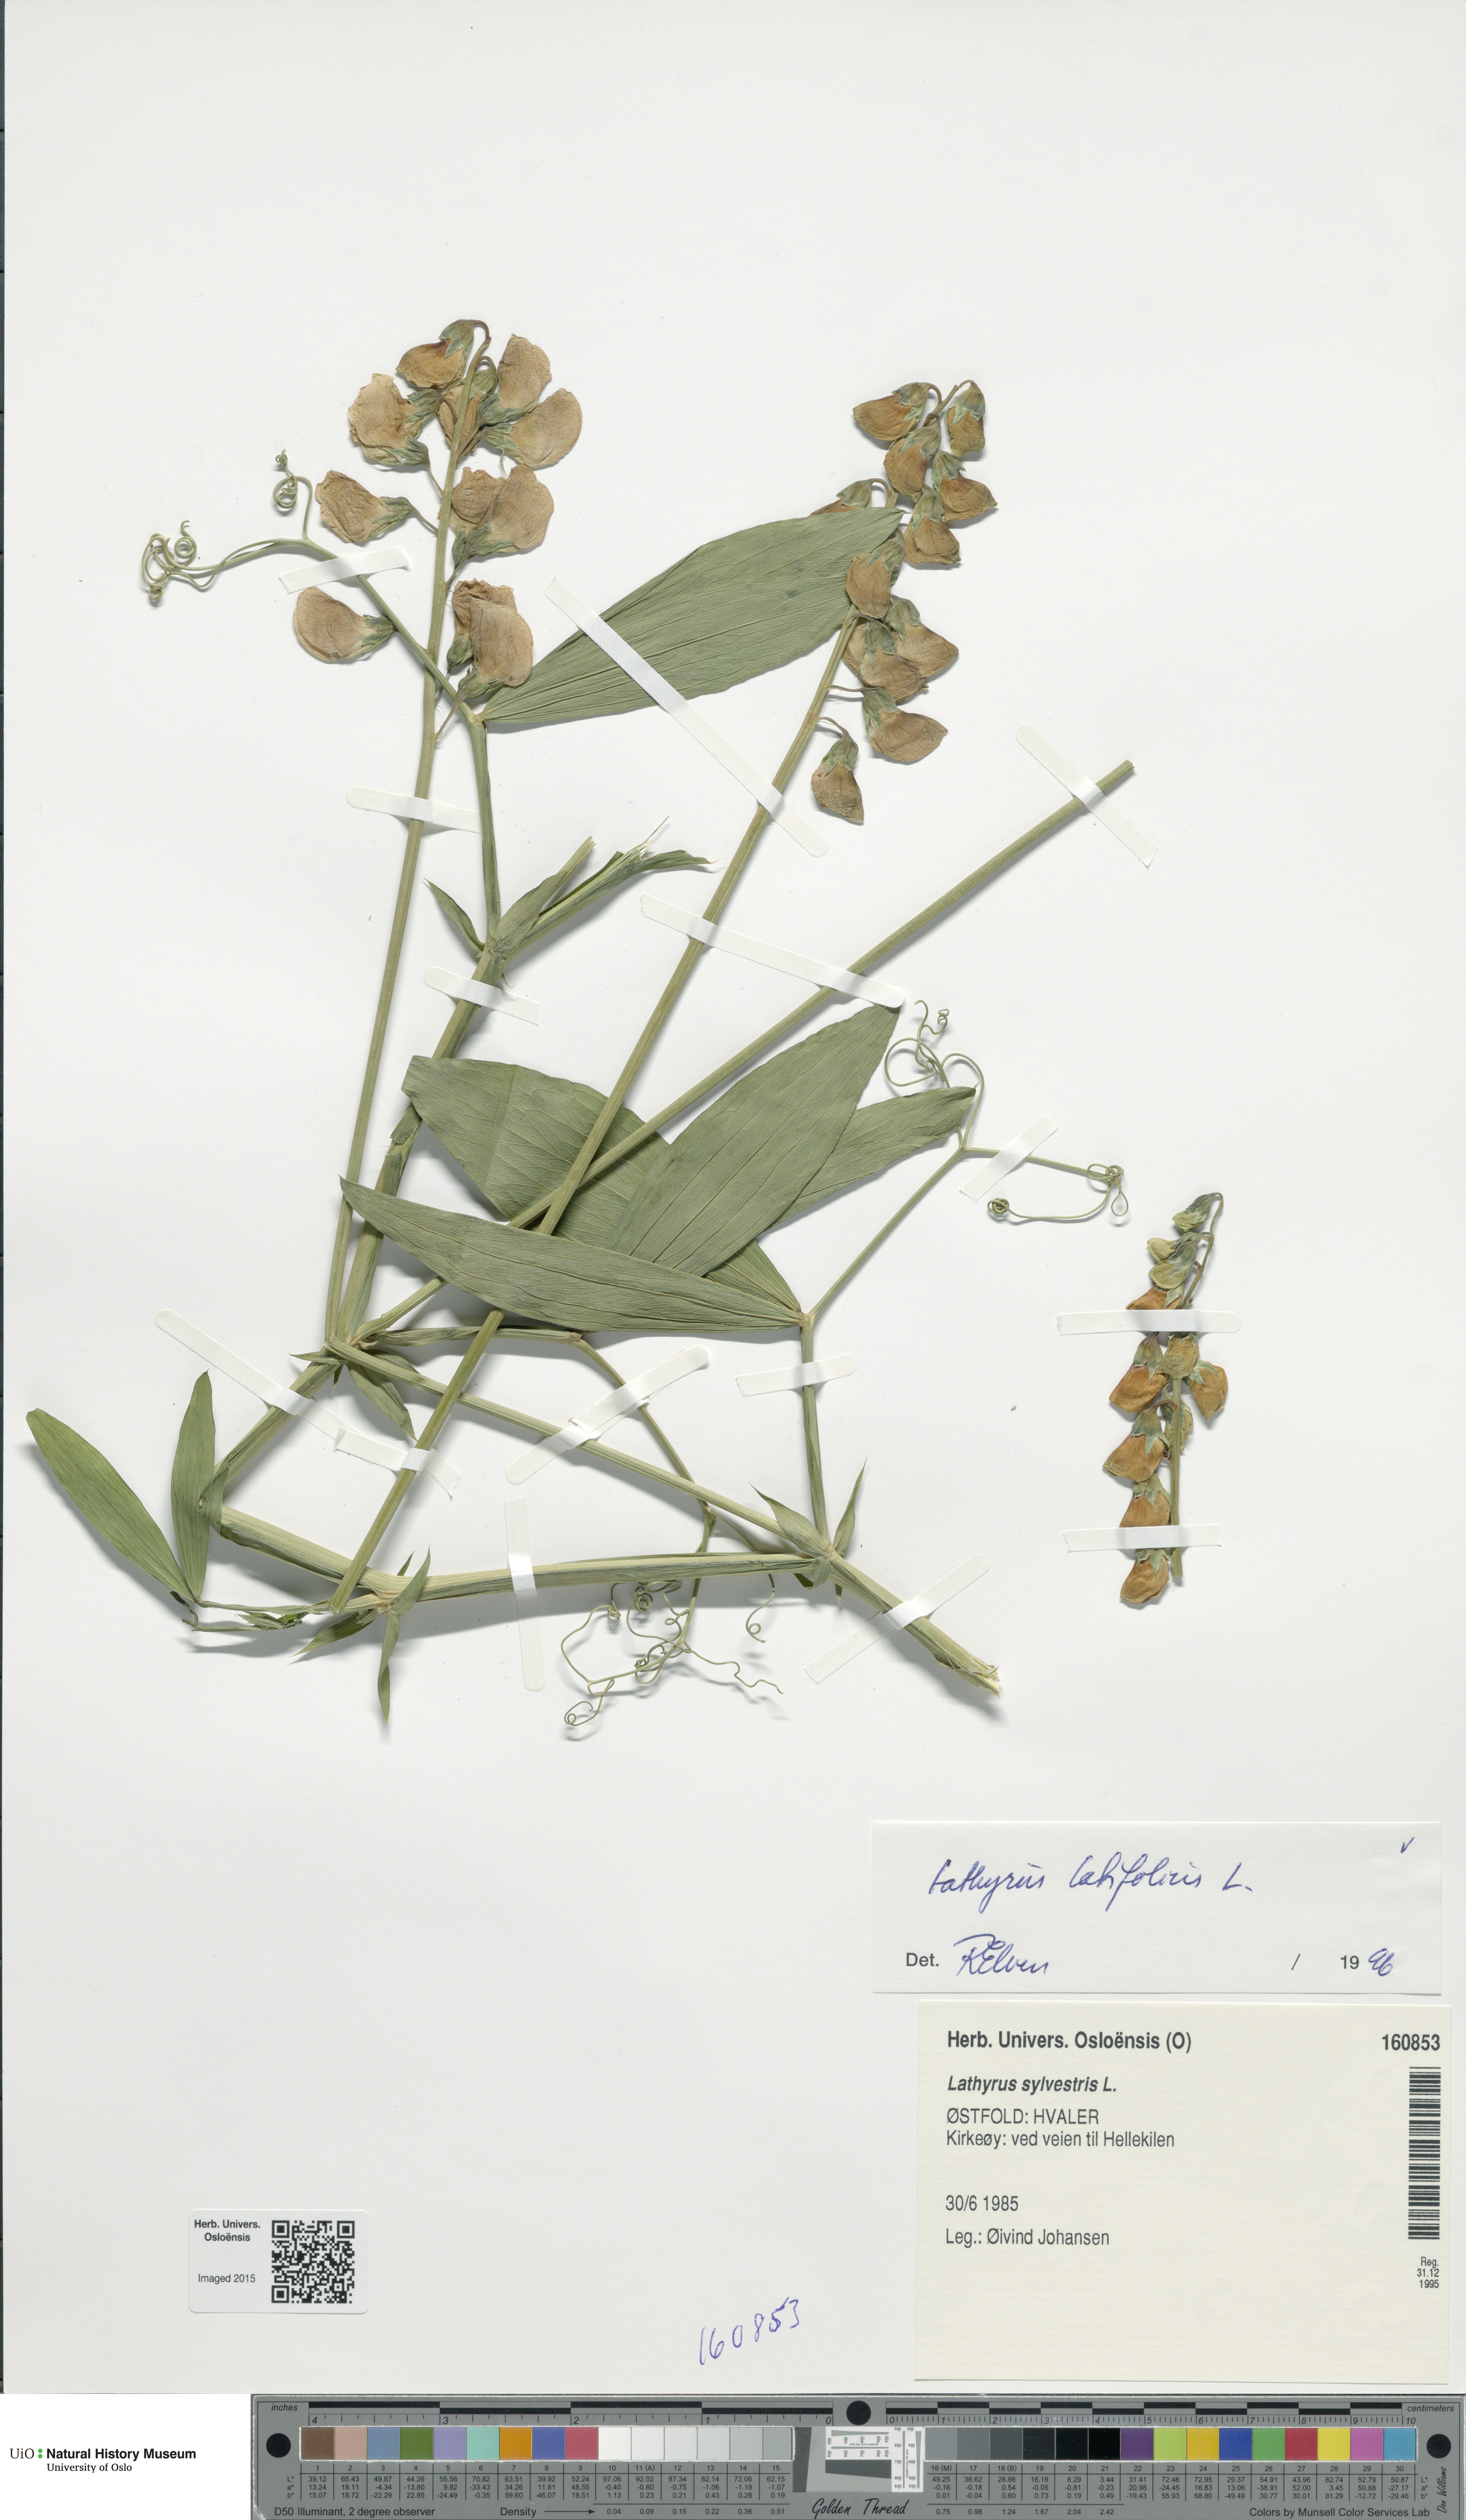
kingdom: Plantae
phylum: Tracheophyta
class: Magnoliopsida
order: Fabales
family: Fabaceae
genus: Lathyrus
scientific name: Lathyrus latifolius
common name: Perennial pea
